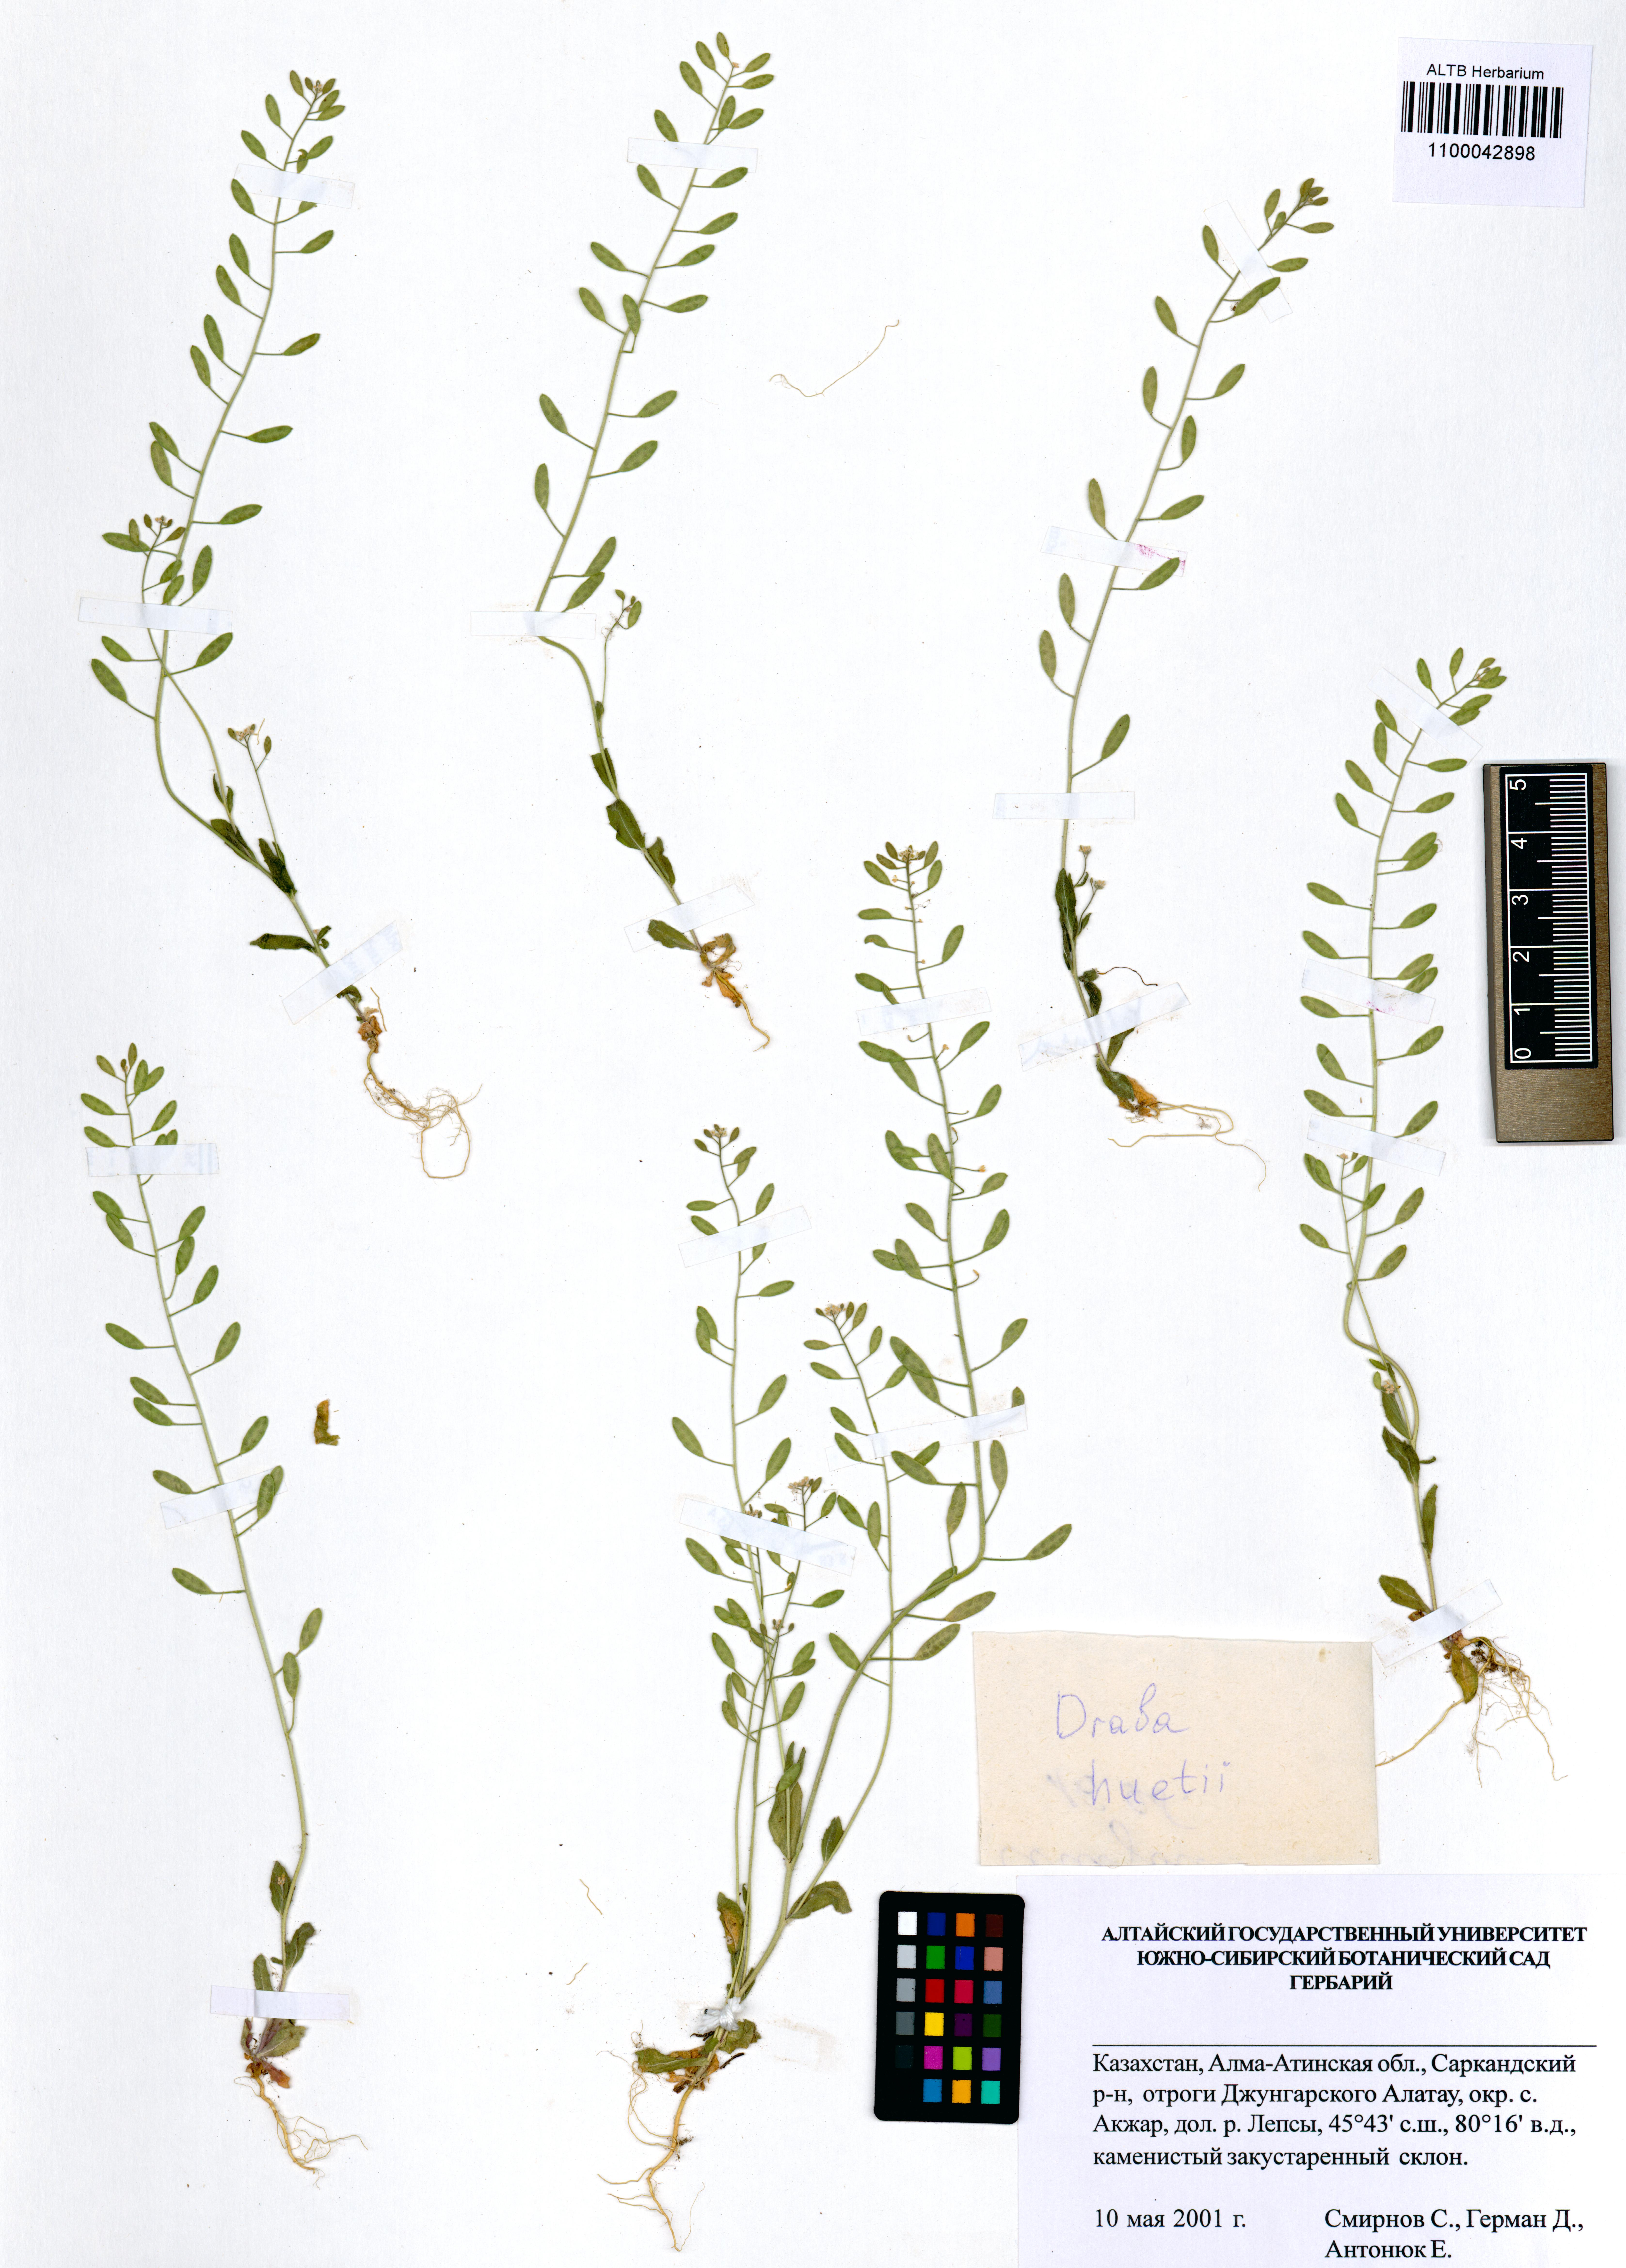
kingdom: Plantae
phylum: Tracheophyta
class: Magnoliopsida
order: Brassicales
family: Brassicaceae
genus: Draba
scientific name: Draba huetii
